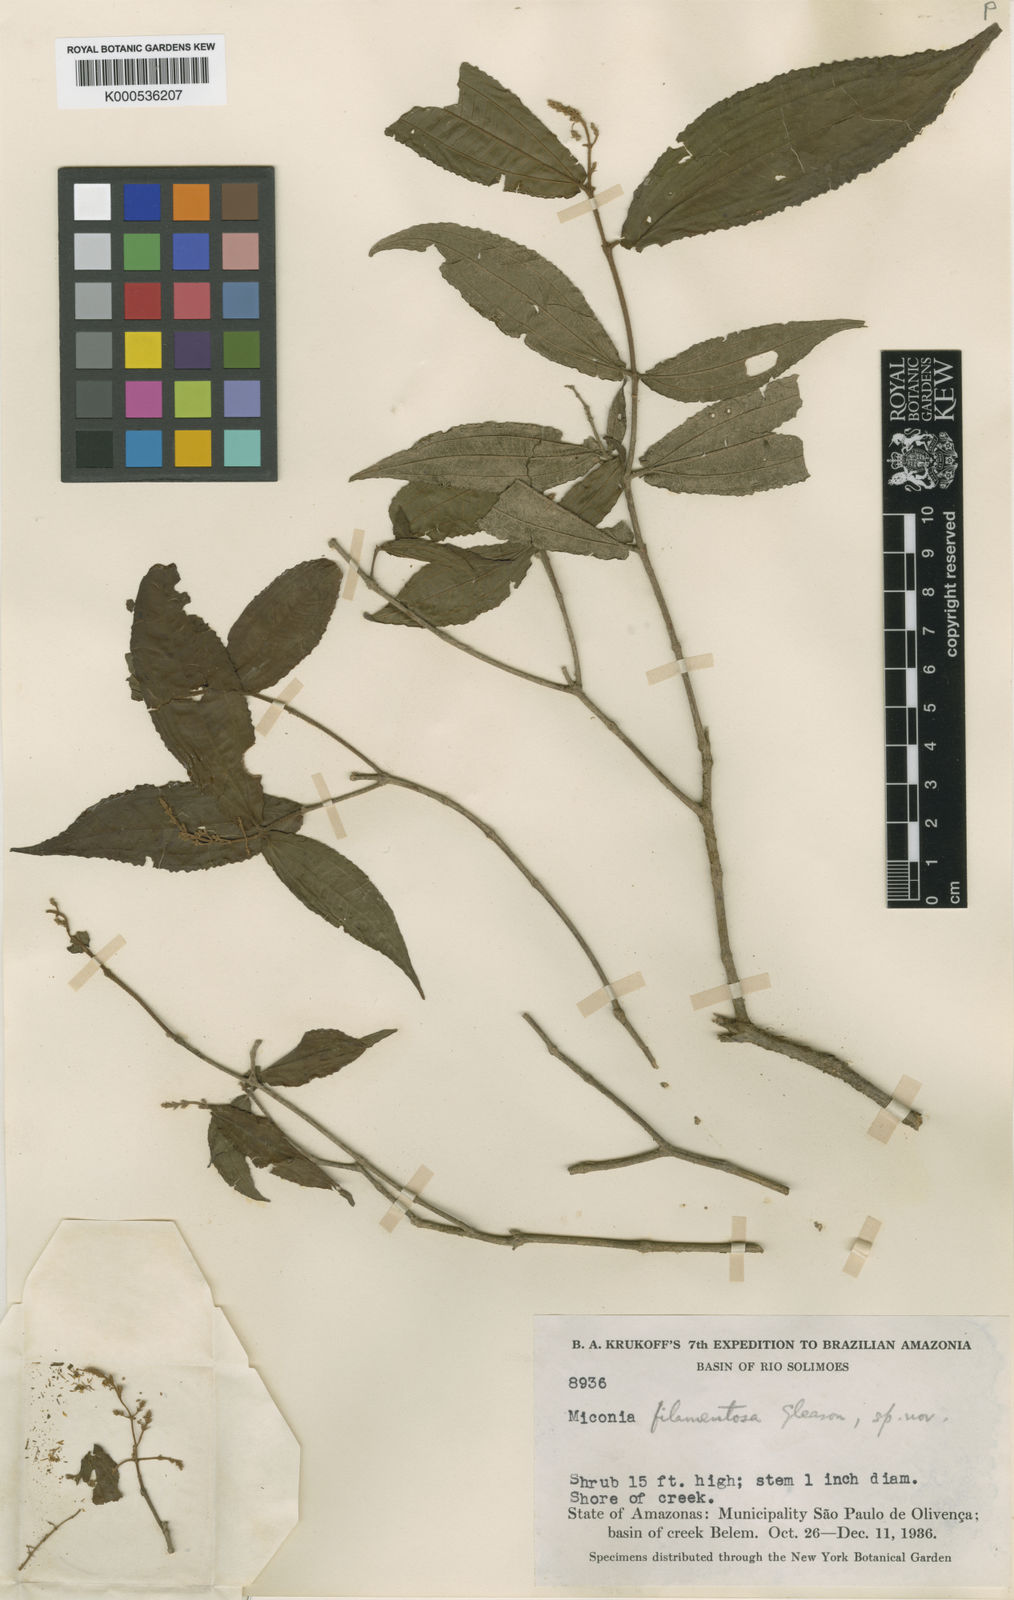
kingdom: Plantae
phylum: Tracheophyta
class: Magnoliopsida
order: Myrtales
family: Melastomataceae
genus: Miconia
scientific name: Miconia filamentosa
